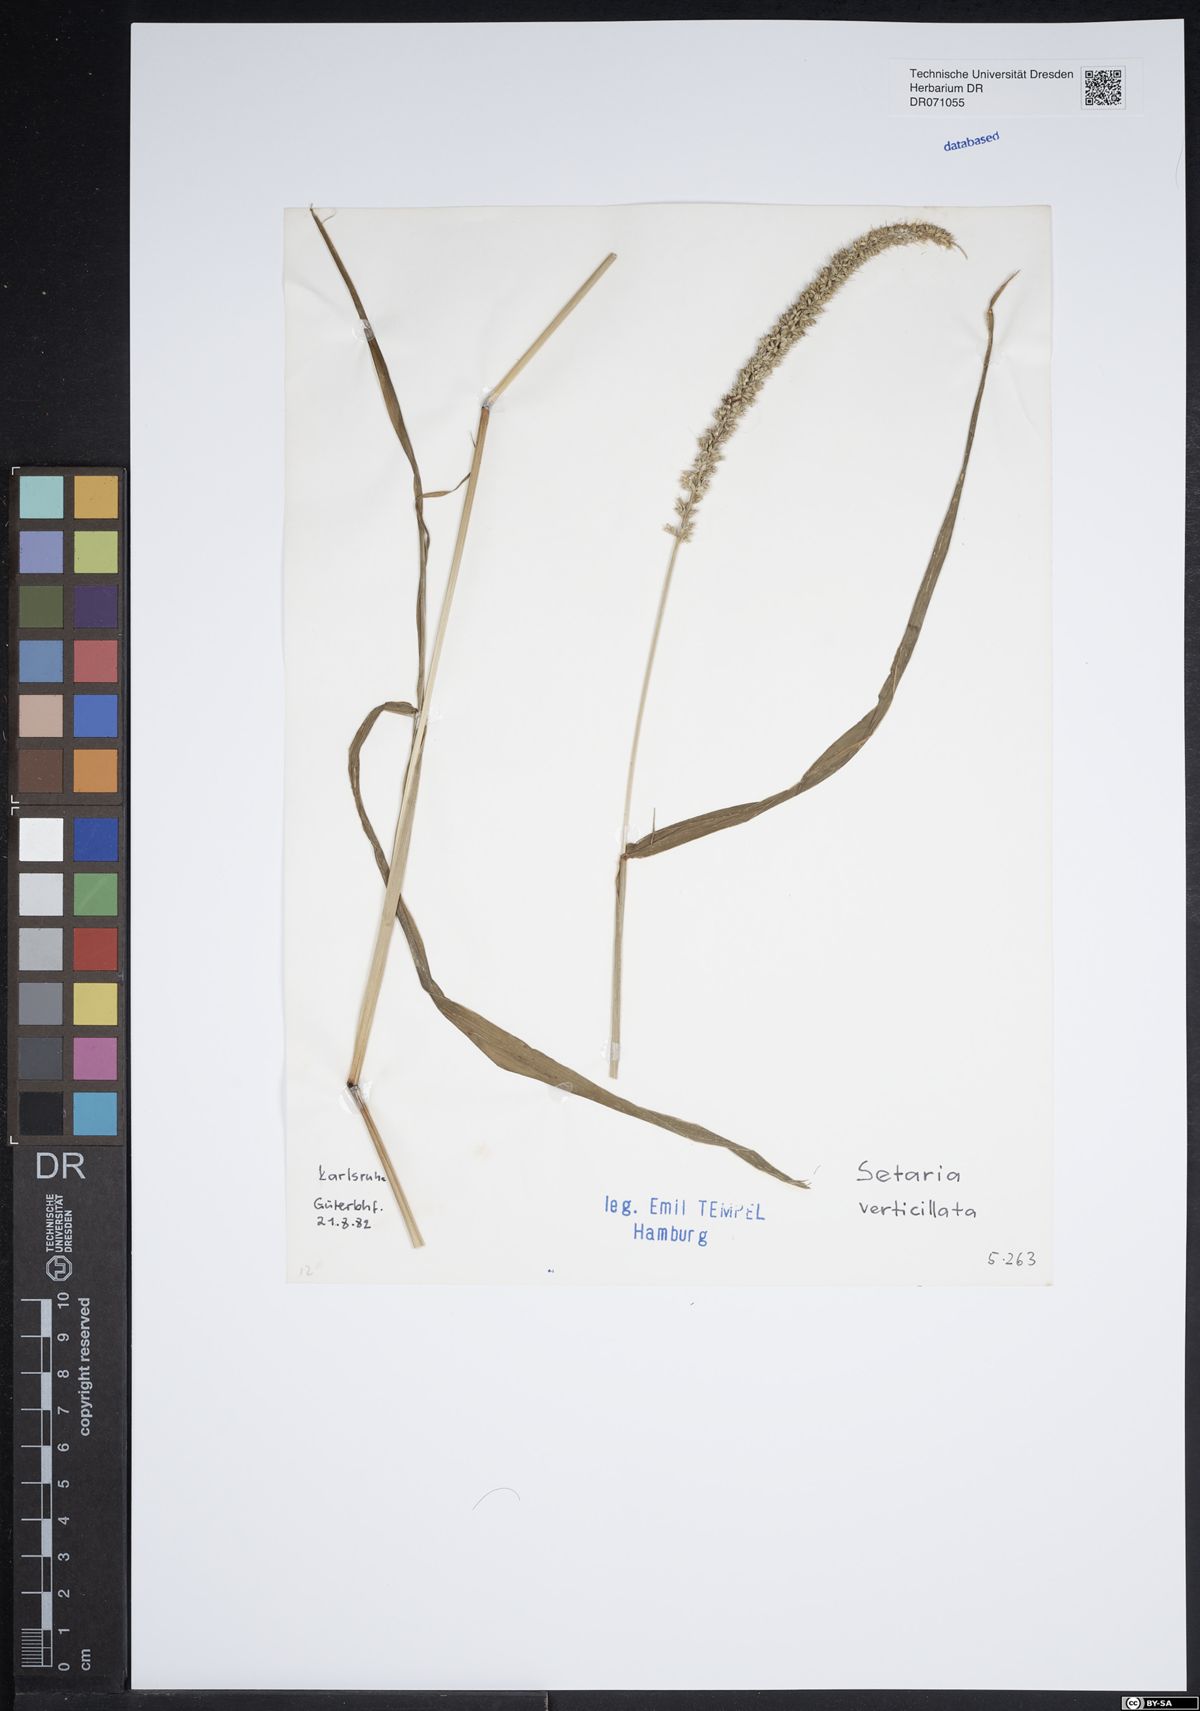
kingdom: Plantae
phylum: Tracheophyta
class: Liliopsida
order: Poales
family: Poaceae
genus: Setaria
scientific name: Setaria verticillata
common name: Hooked bristlegrass
